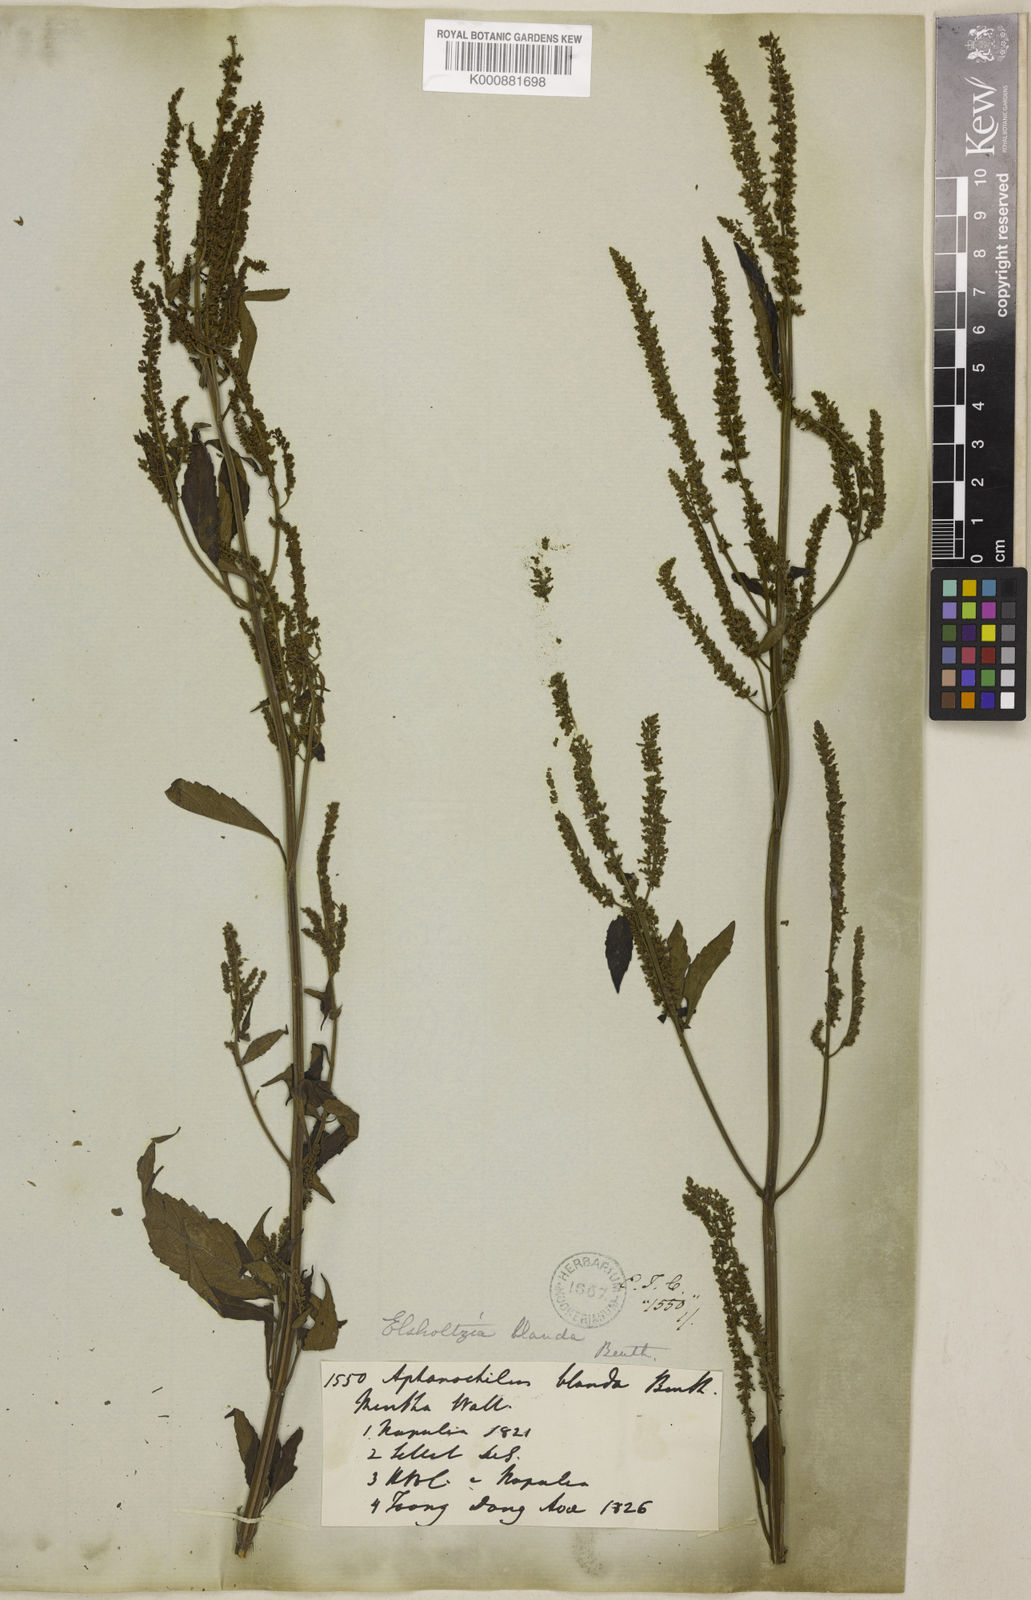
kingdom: Plantae
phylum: Tracheophyta
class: Magnoliopsida
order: Lamiales
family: Lamiaceae
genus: Elsholtzia
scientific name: Elsholtzia blanda
